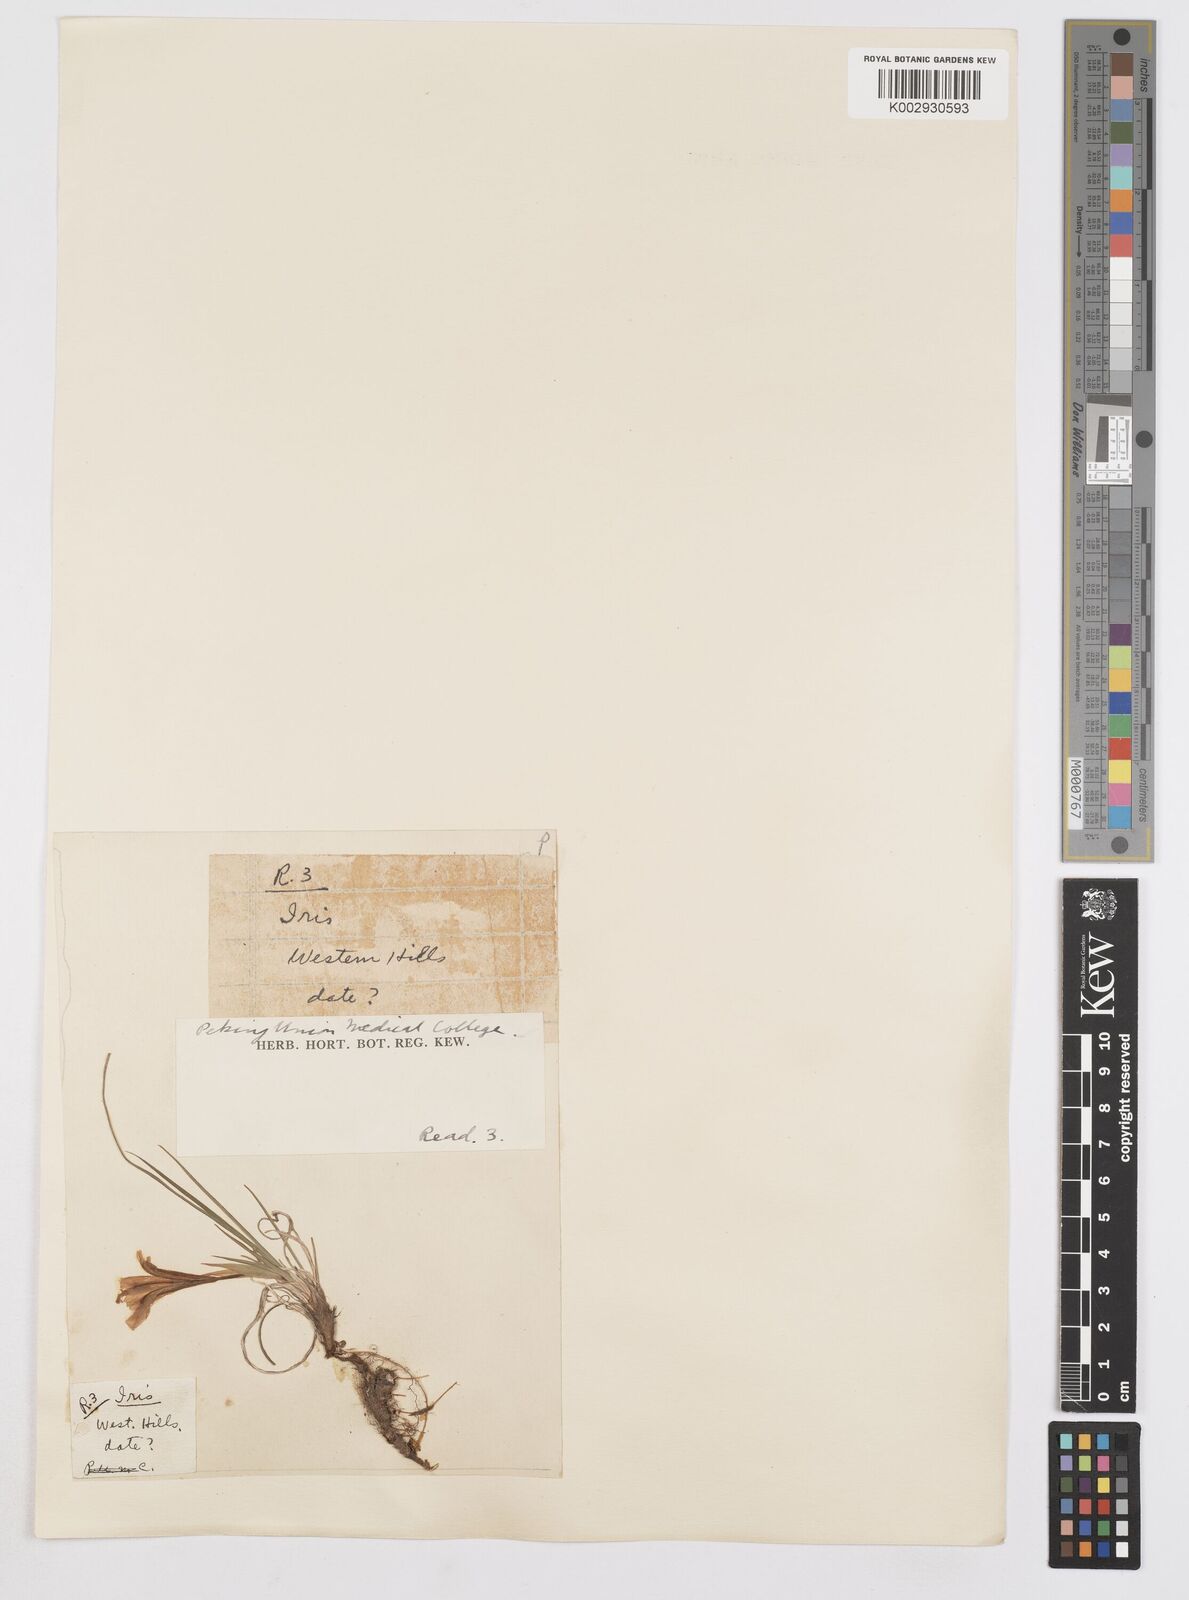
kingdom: Plantae
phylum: Tracheophyta
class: Liliopsida
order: Asparagales
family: Iridaceae
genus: Iris
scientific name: Iris
